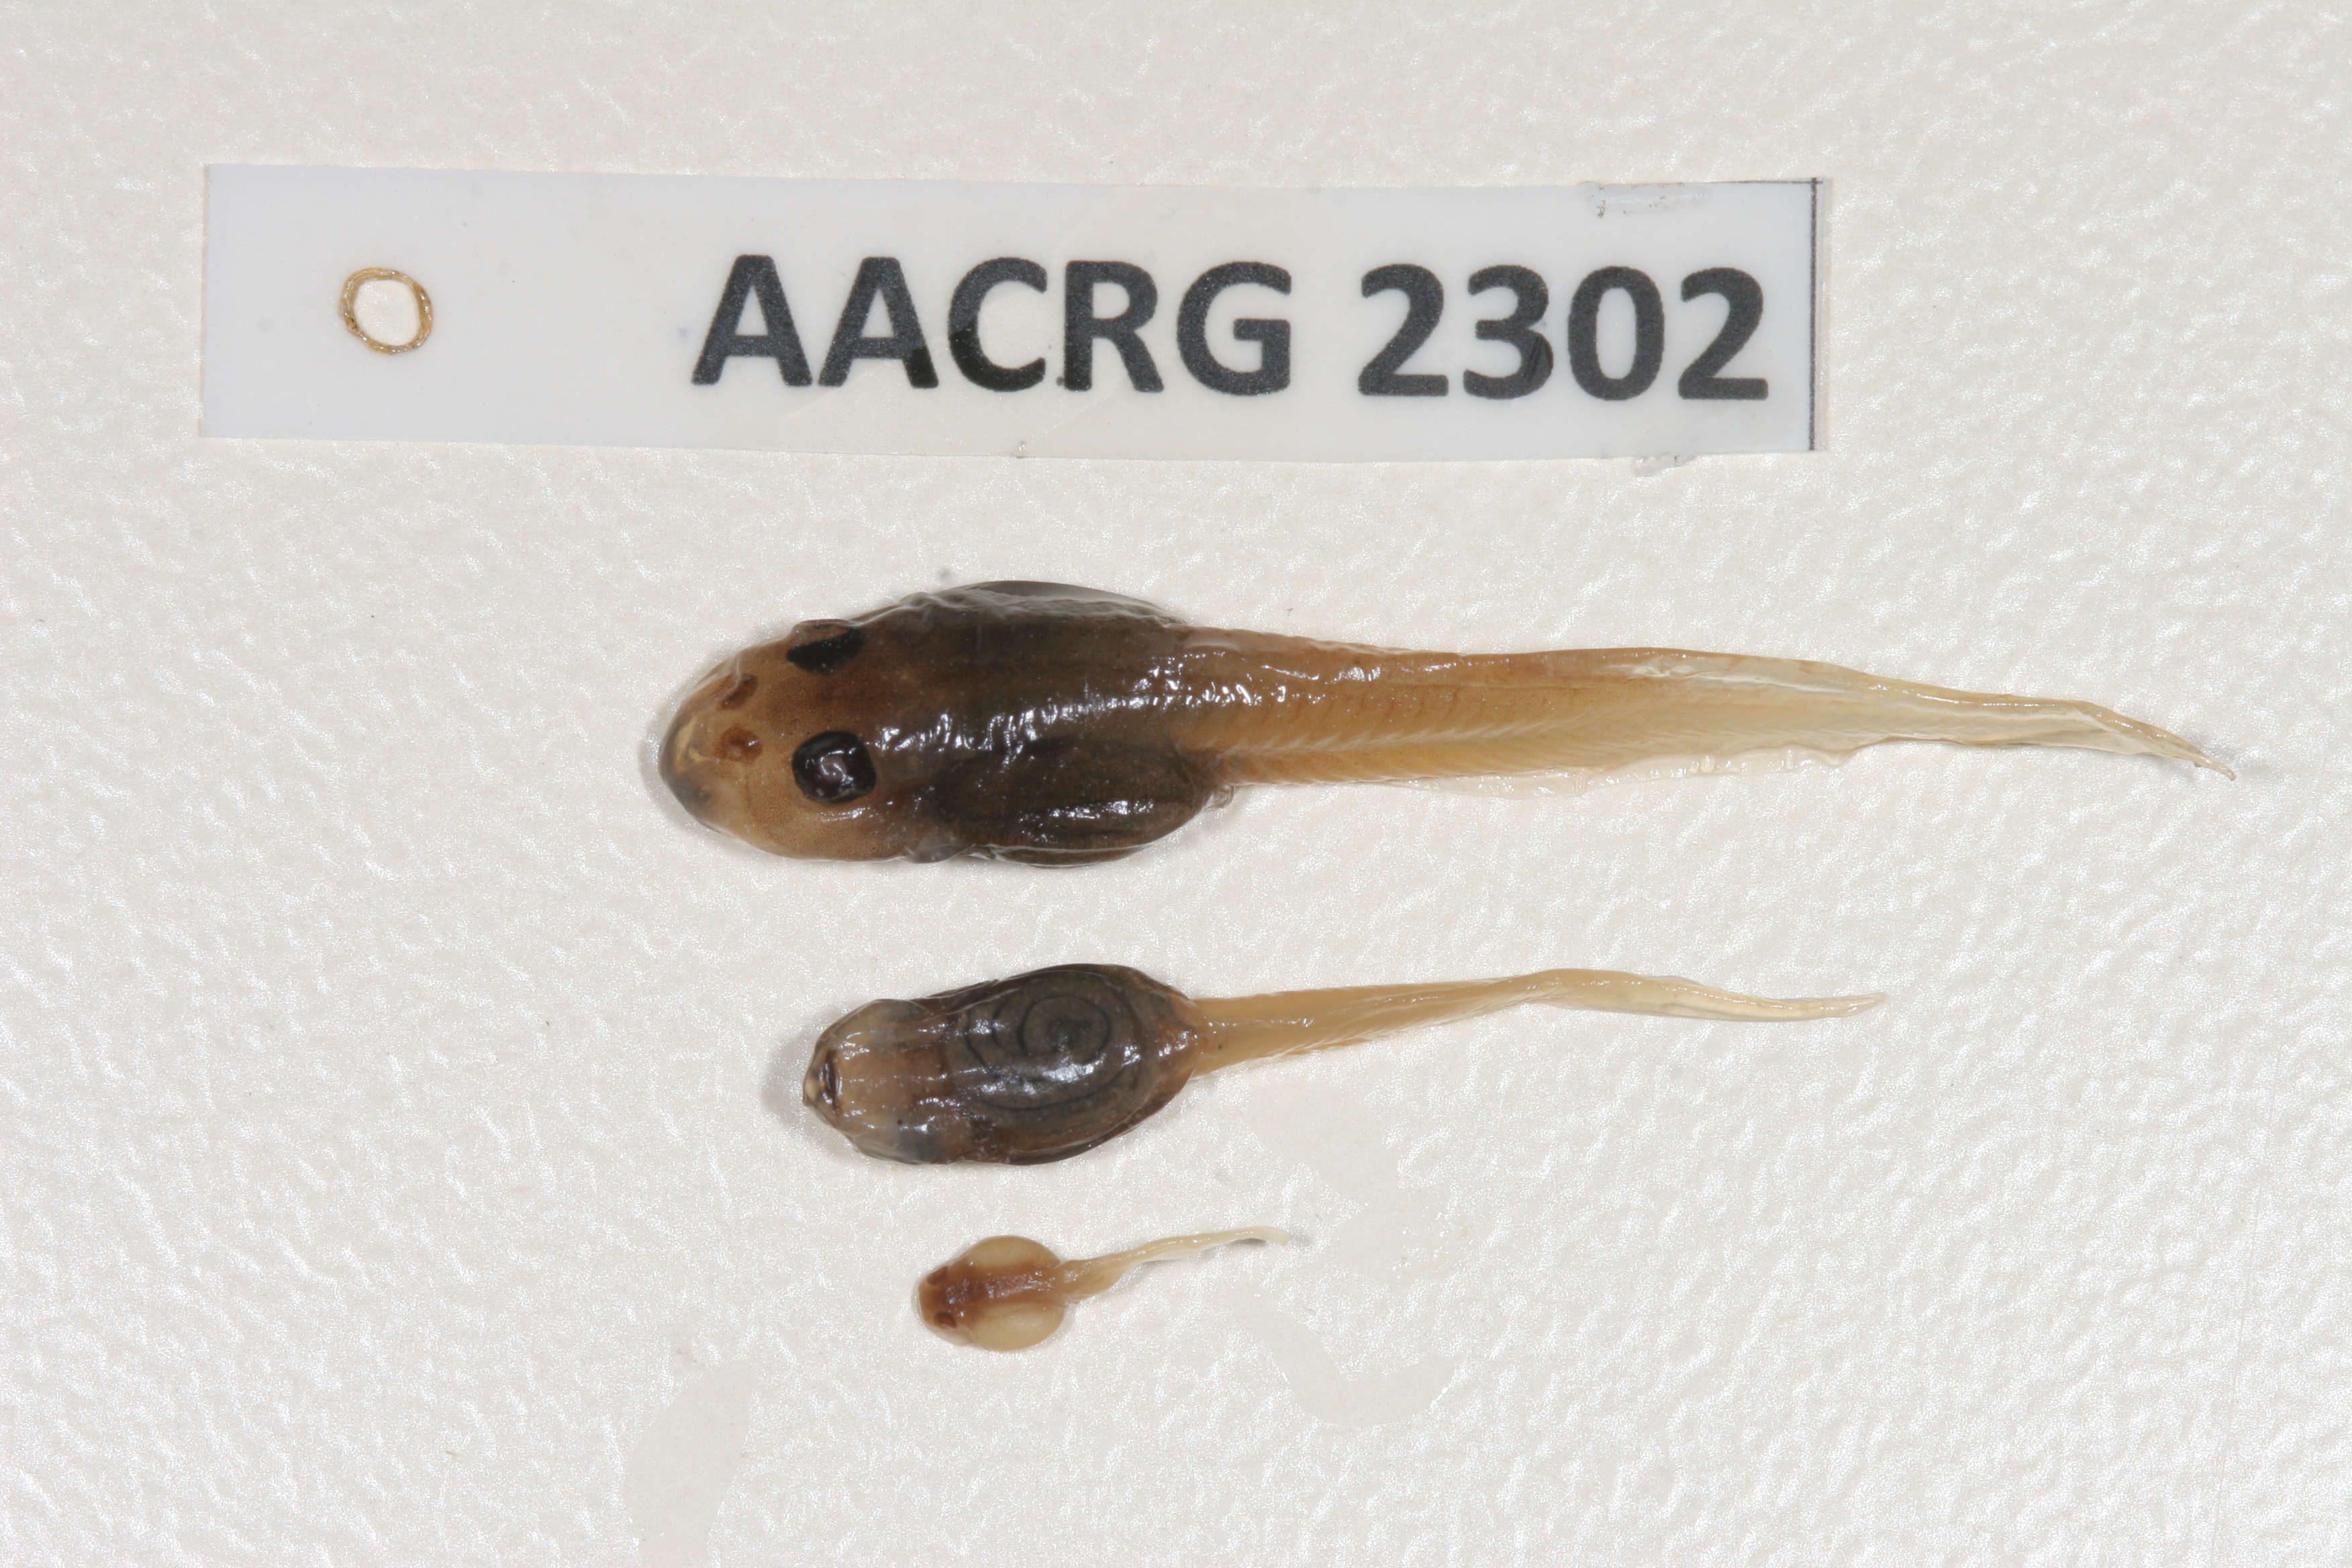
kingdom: Animalia
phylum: Chordata
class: Amphibia
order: Anura
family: Pyxicephalidae
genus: Strongylopus
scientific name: Strongylopus wageri
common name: Wager's stream frog
